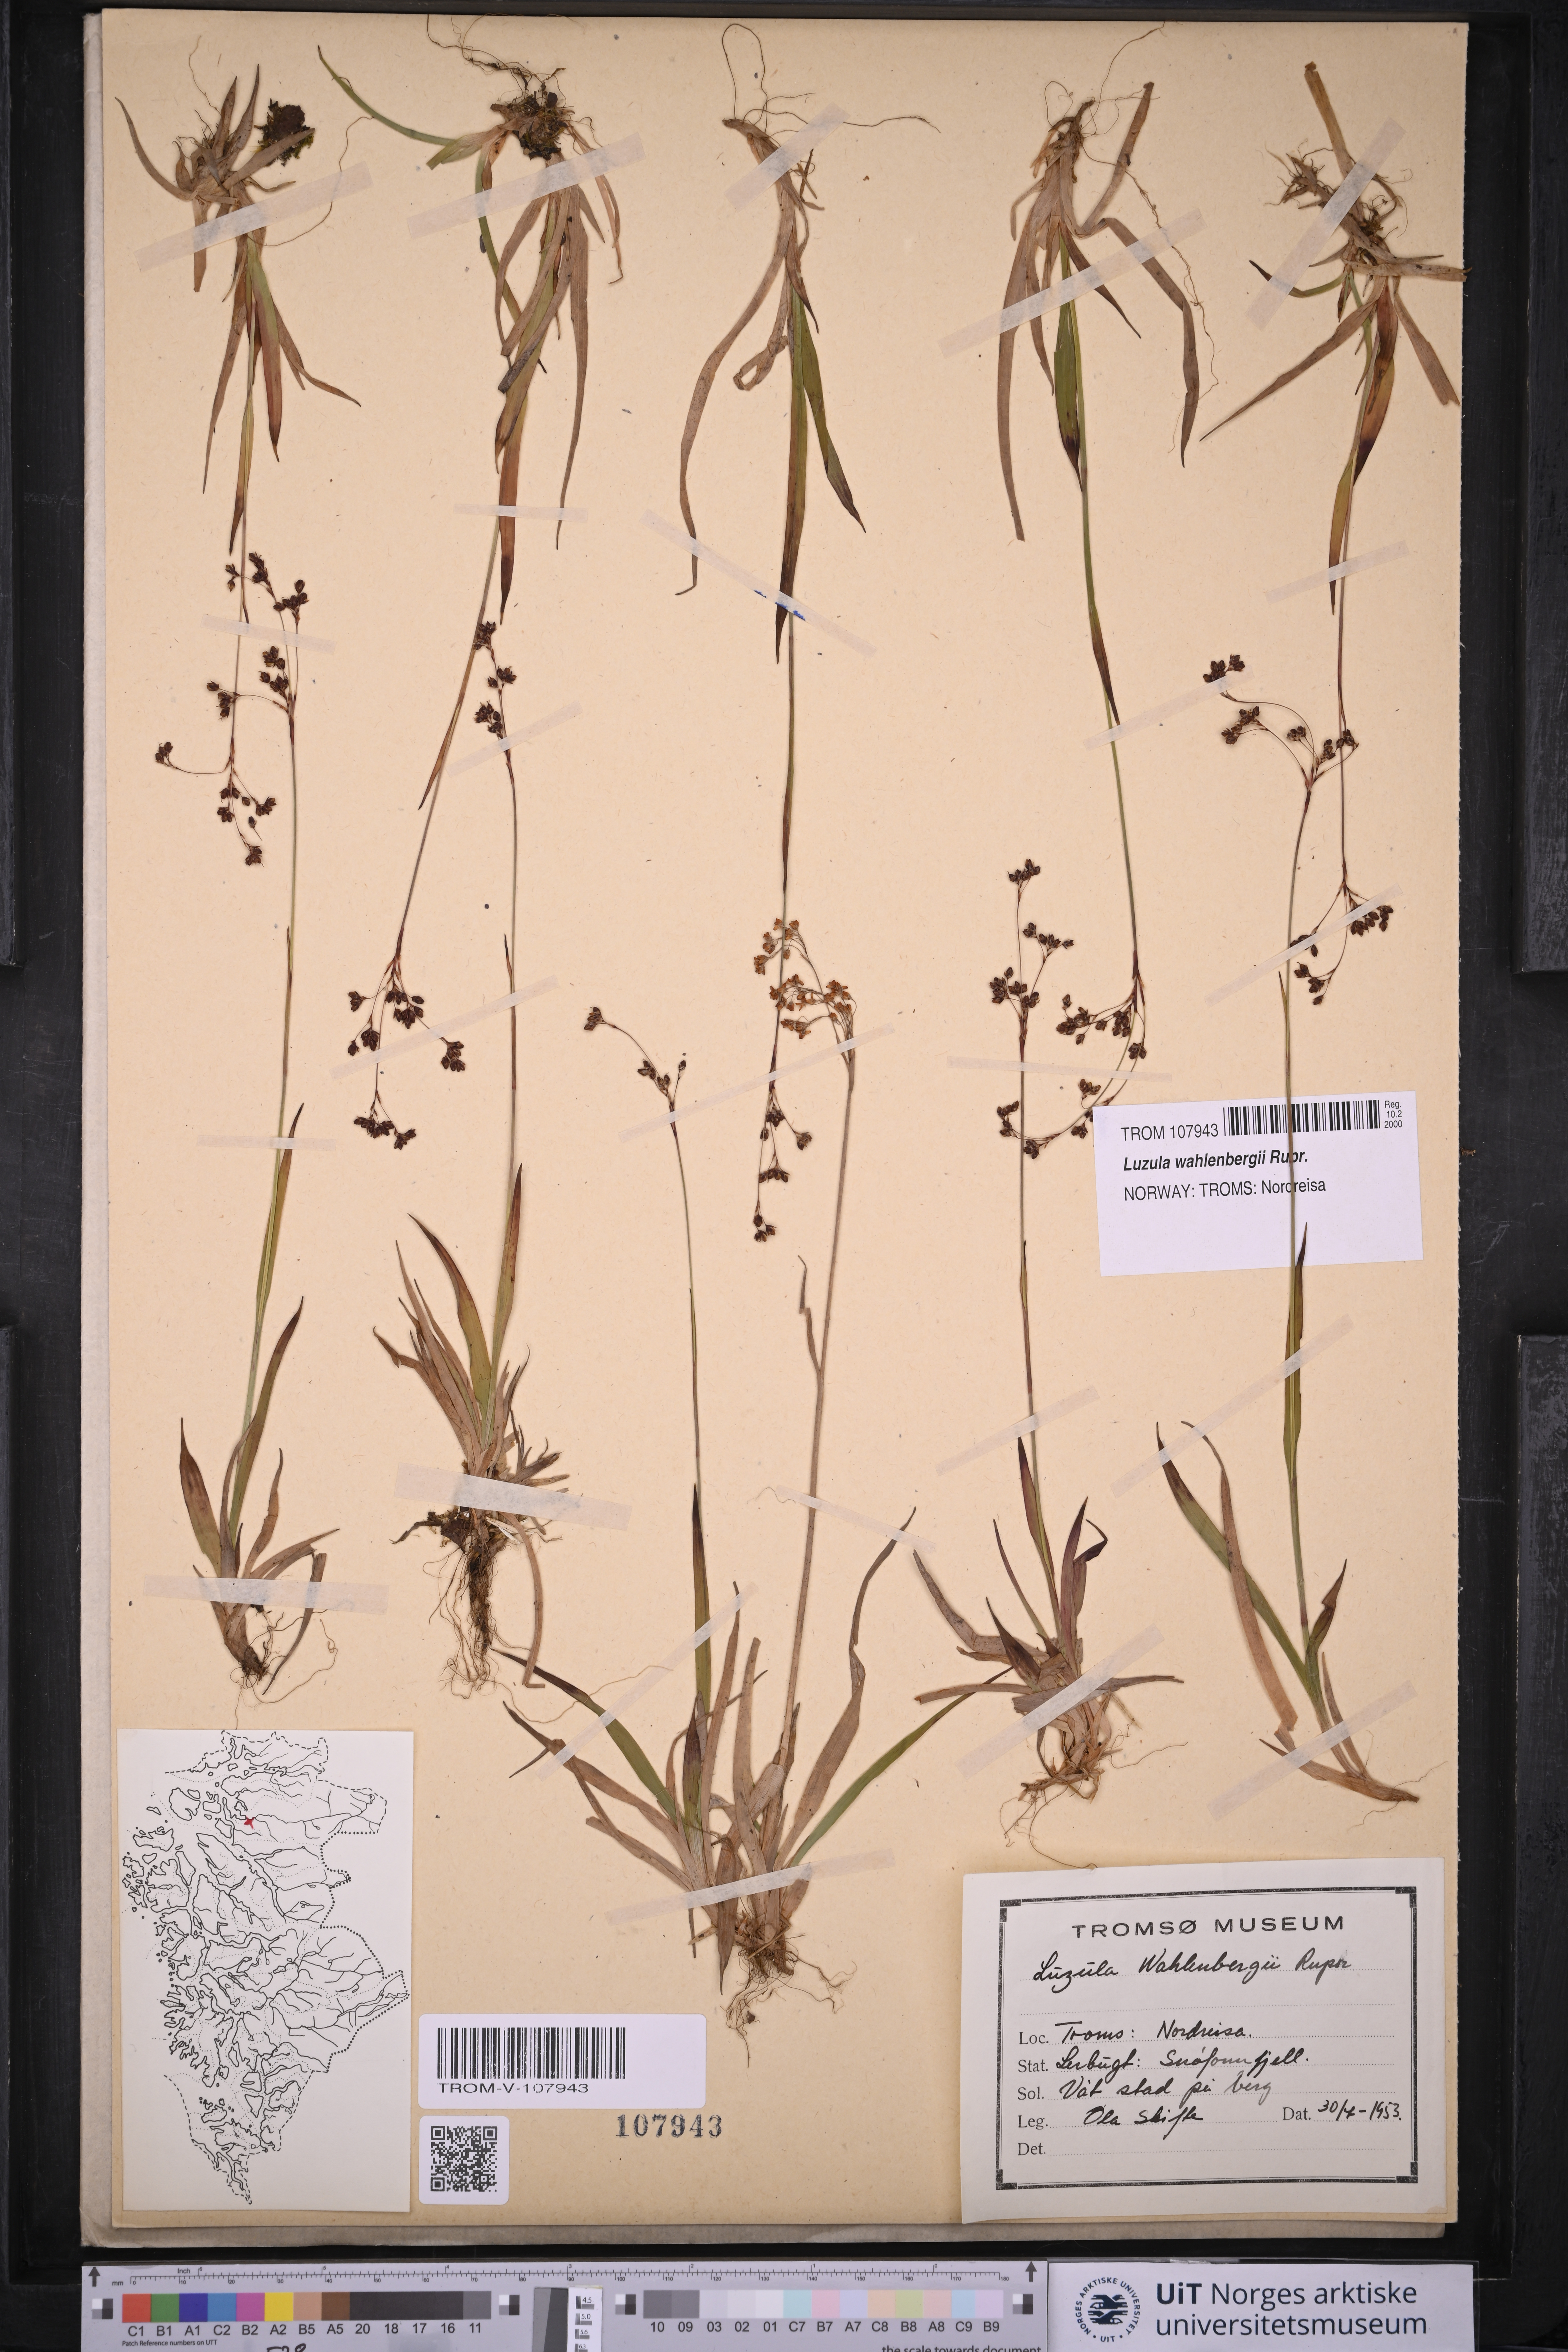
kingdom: Plantae
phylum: Tracheophyta
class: Liliopsida
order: Poales
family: Juncaceae
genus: Luzula
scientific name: Luzula wahlenbergii
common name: Wahlenberg's wood-rush
